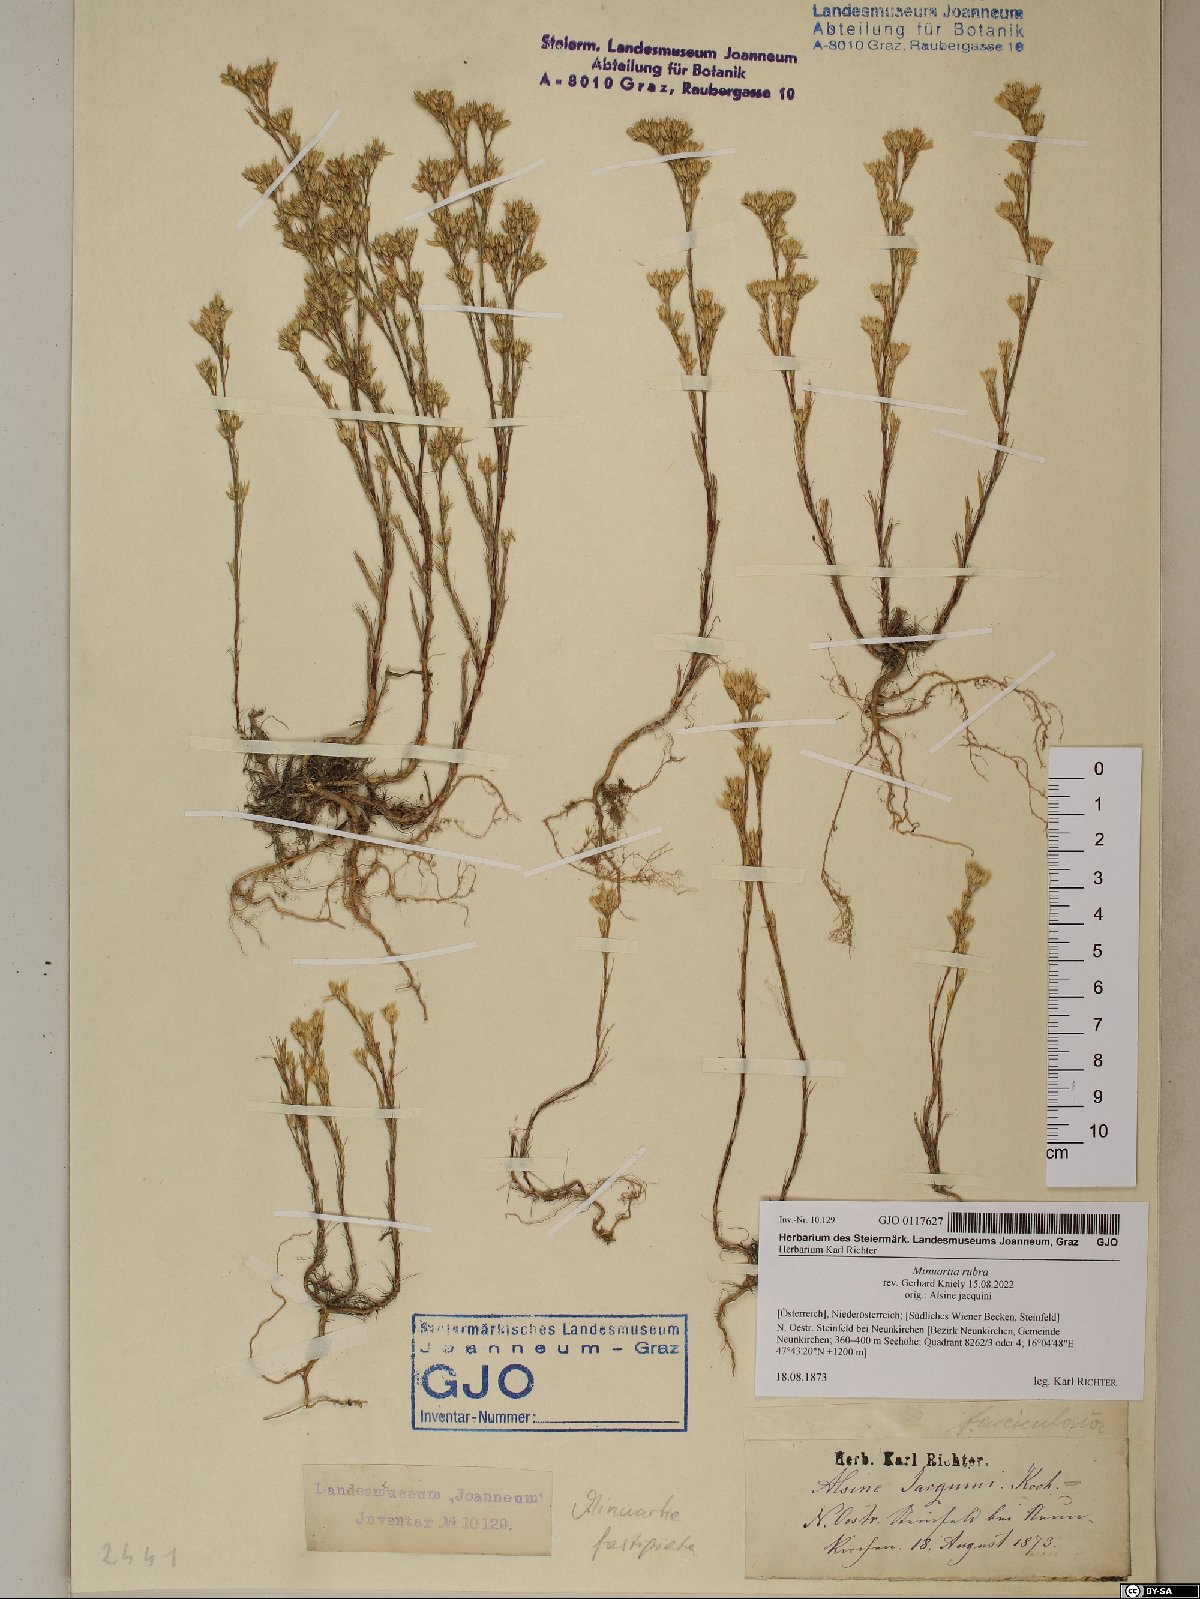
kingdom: Plantae
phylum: Tracheophyta
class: Magnoliopsida
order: Caryophyllales
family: Caryophyllaceae
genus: Minuartia
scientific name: Minuartia mucronata
